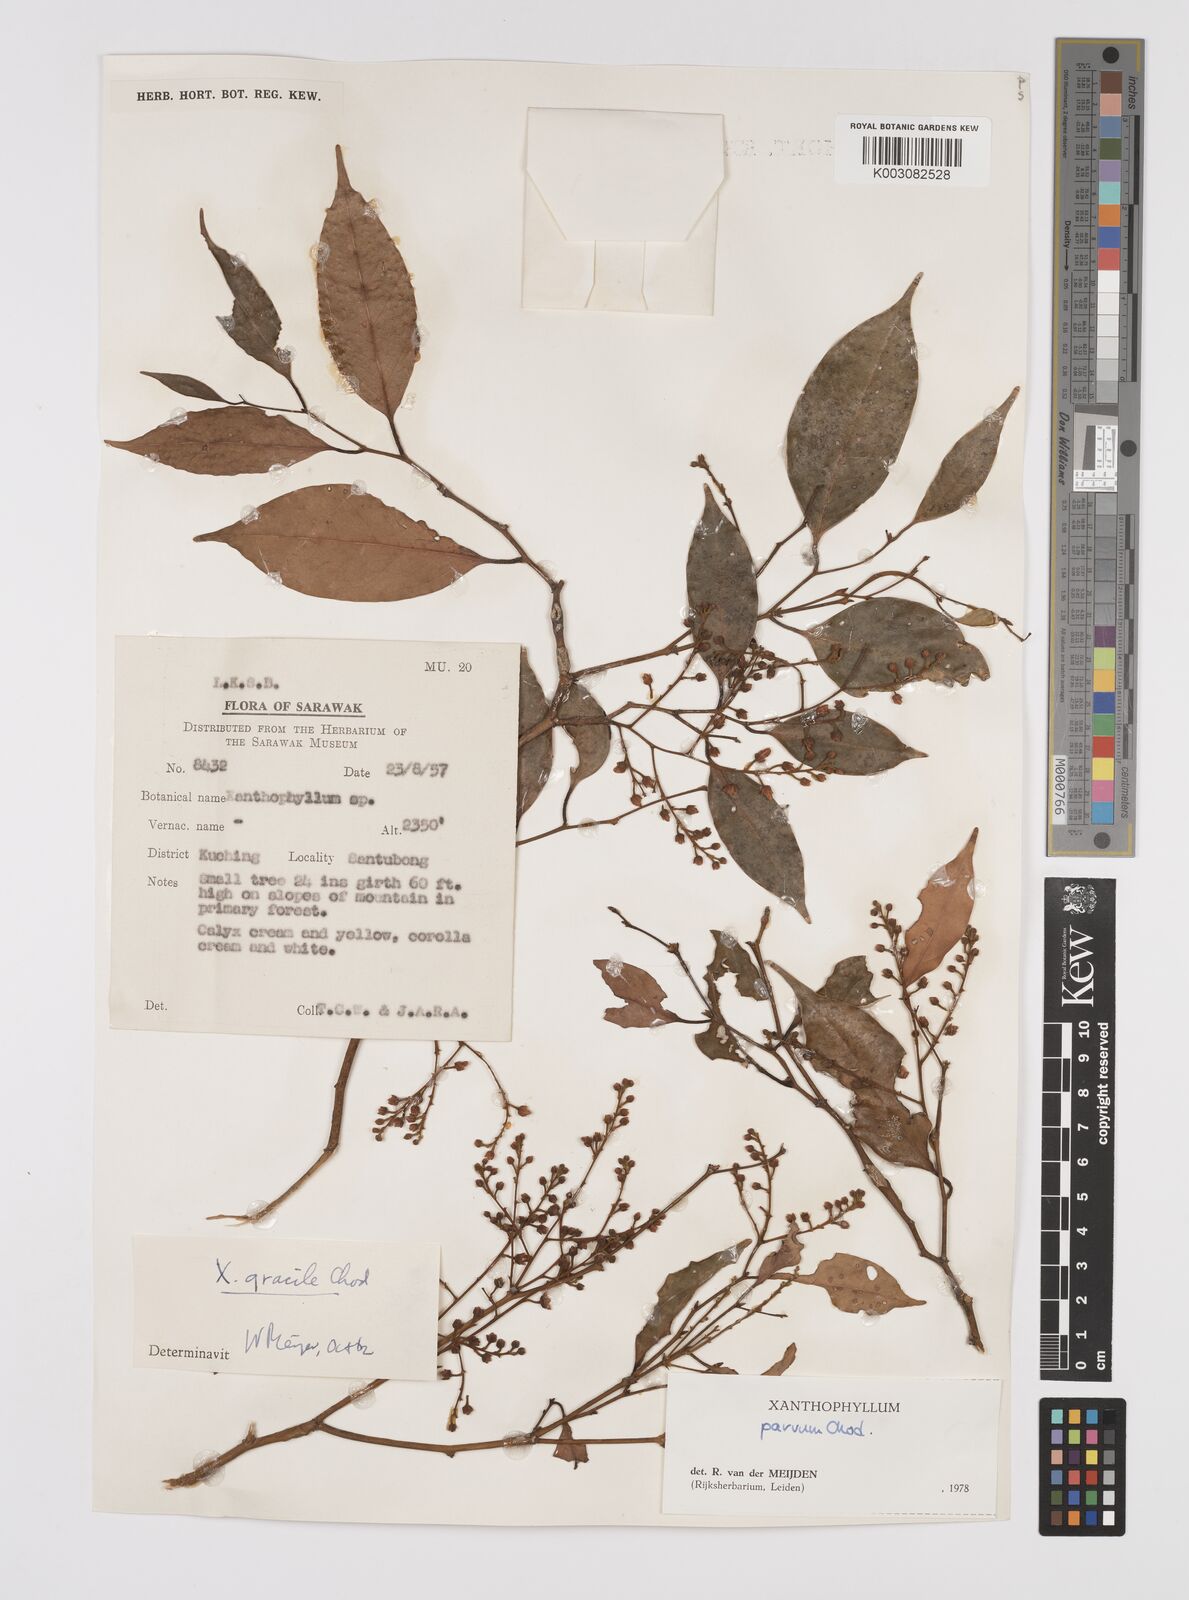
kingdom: Plantae
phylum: Tracheophyta
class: Magnoliopsida
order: Fabales
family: Polygalaceae
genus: Xanthophyllum
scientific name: Xanthophyllum griffithii
